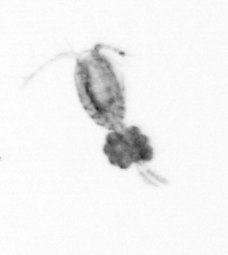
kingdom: Animalia
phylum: Arthropoda
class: Copepoda
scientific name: Copepoda
